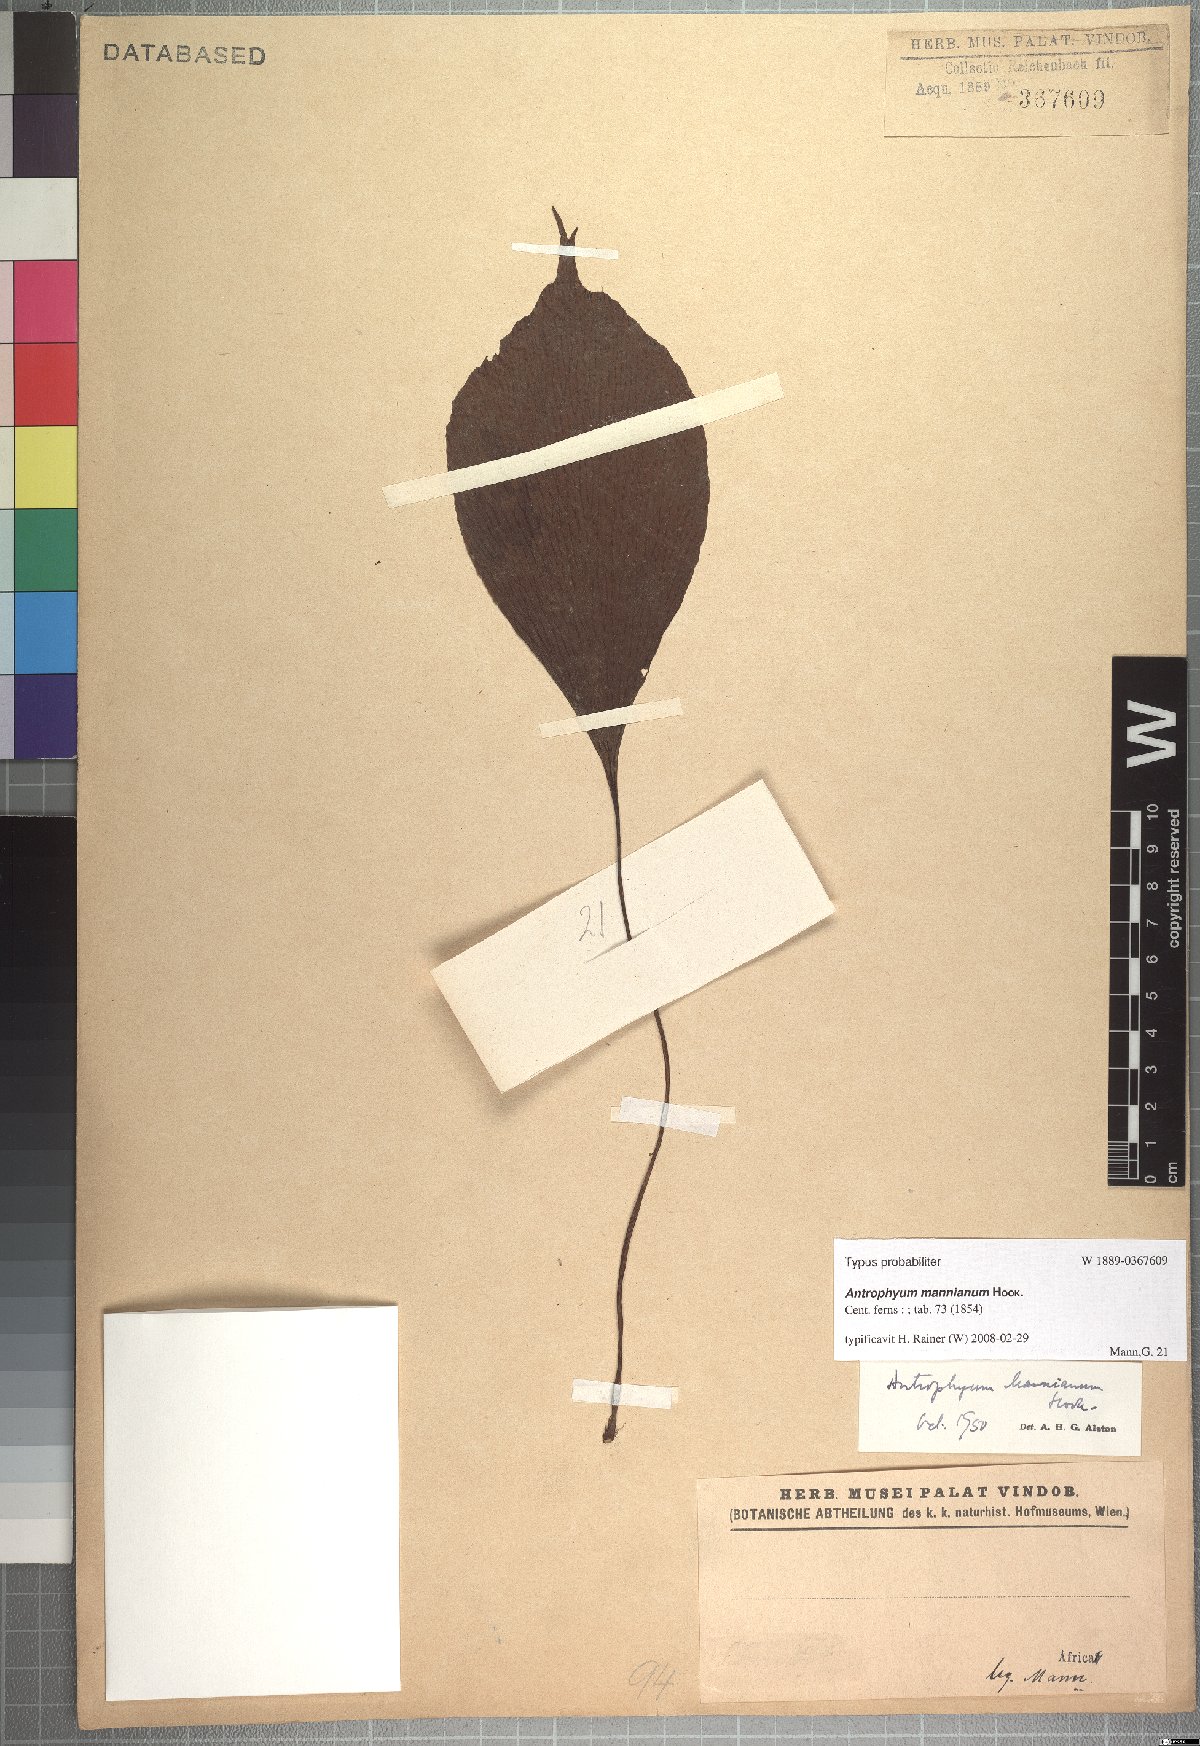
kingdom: Plantae
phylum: Tracheophyta
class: Polypodiopsida
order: Polypodiales
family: Pteridaceae
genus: Antrophyopsis
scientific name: Antrophyopsis manniana
